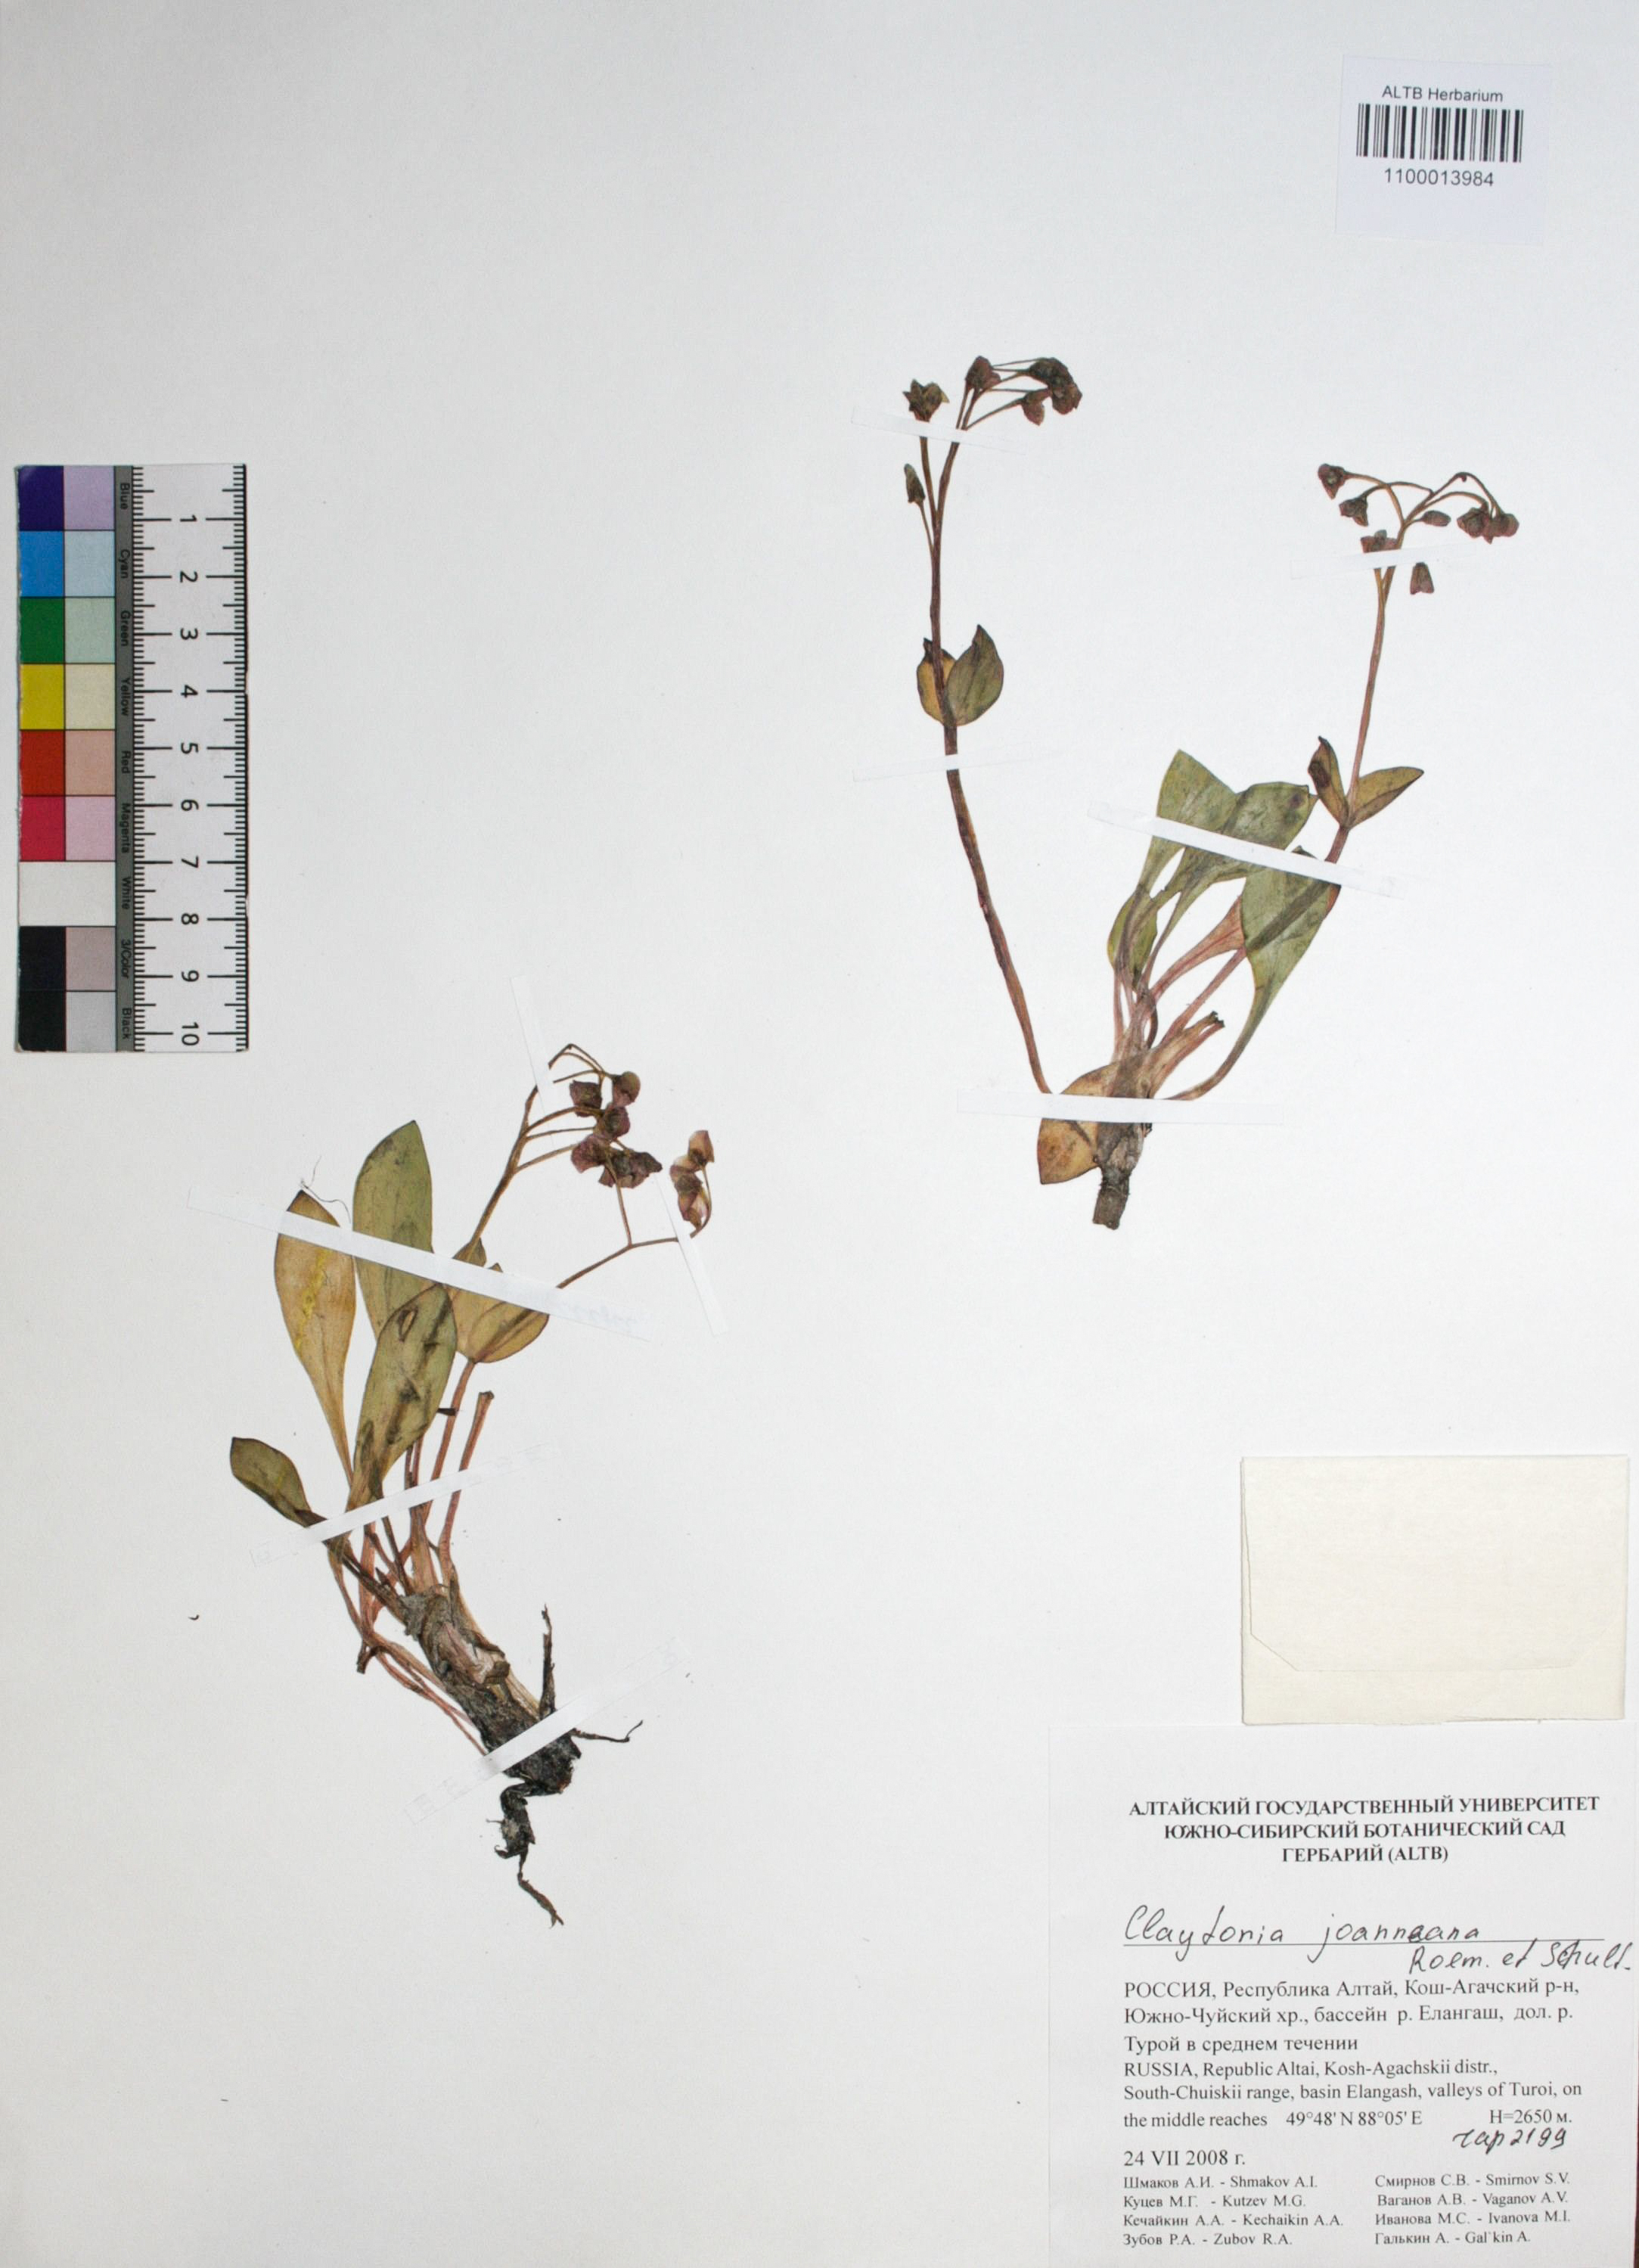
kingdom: Plantae
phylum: Tracheophyta
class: Magnoliopsida
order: Caryophyllales
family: Montiaceae
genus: Claytonia
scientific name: Claytonia joanneana
